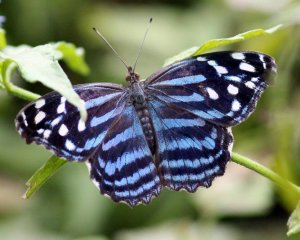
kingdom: Animalia
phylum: Arthropoda
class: Insecta
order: Lepidoptera
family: Nymphalidae
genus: Myscelia
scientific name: Myscelia ethusa
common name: Mexican Bluewing
